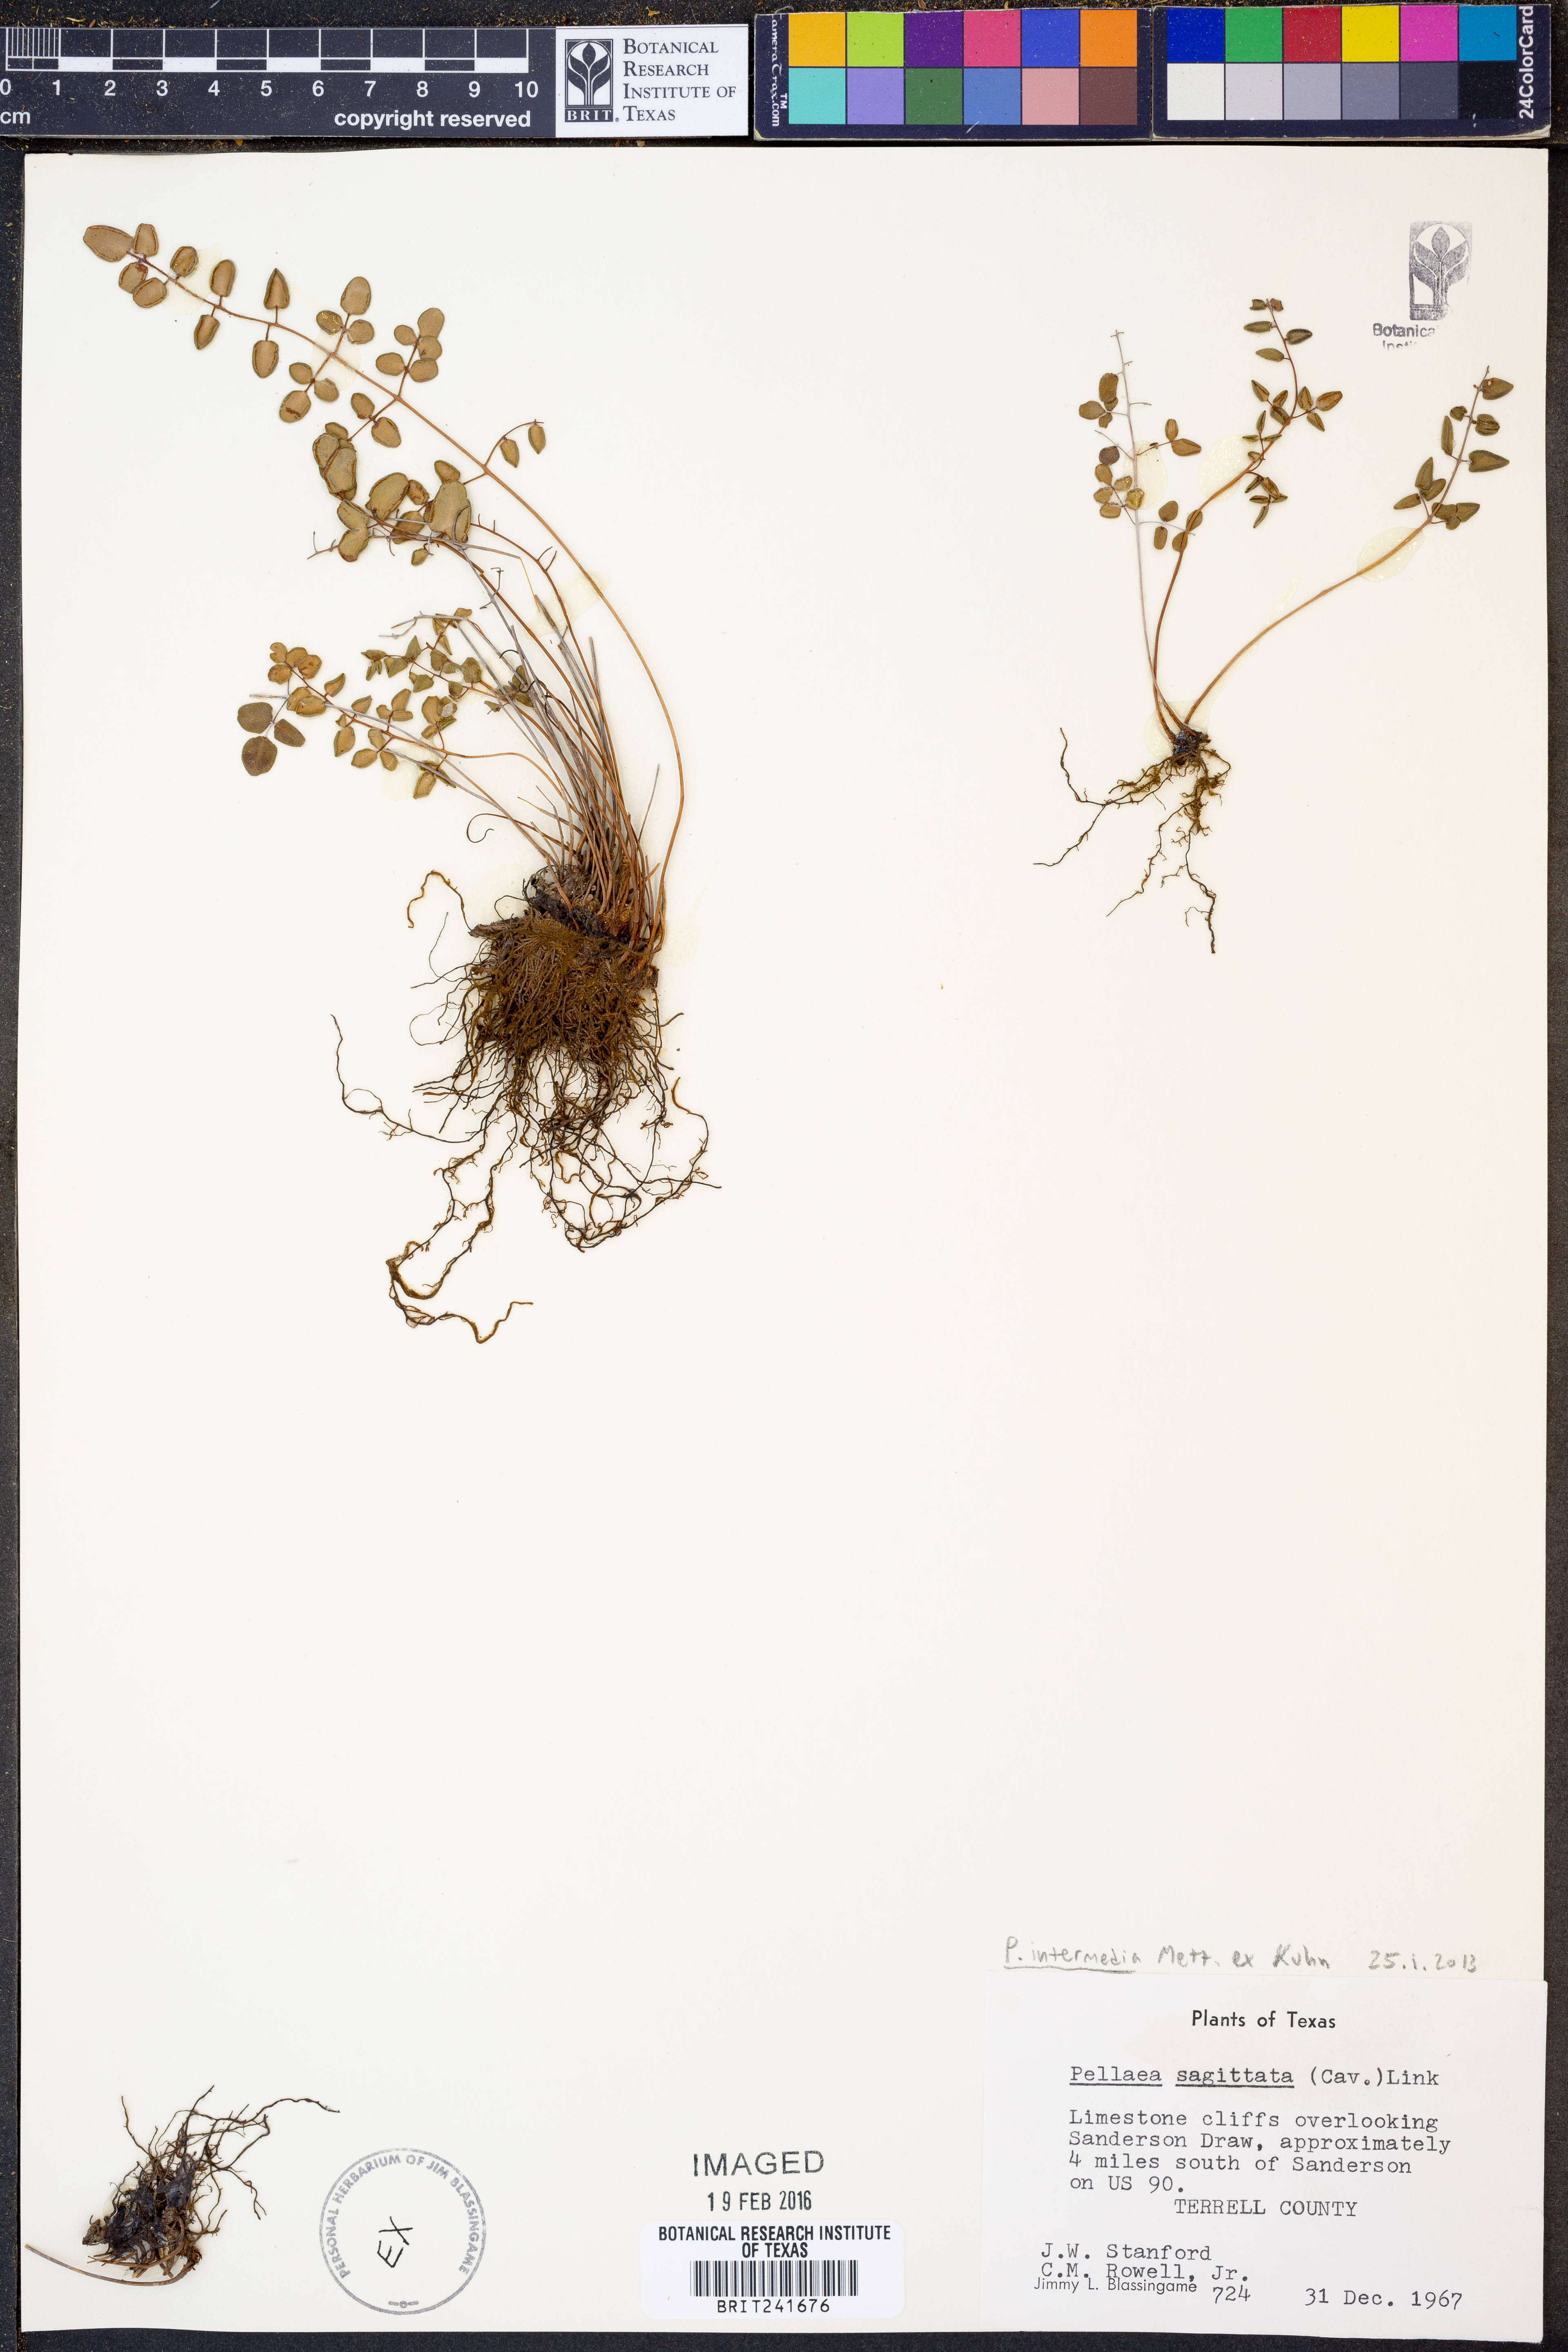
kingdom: Plantae
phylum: Tracheophyta
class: Polypodiopsida
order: Polypodiales
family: Pteridaceae
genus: Pellaea
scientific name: Pellaea intermedia
